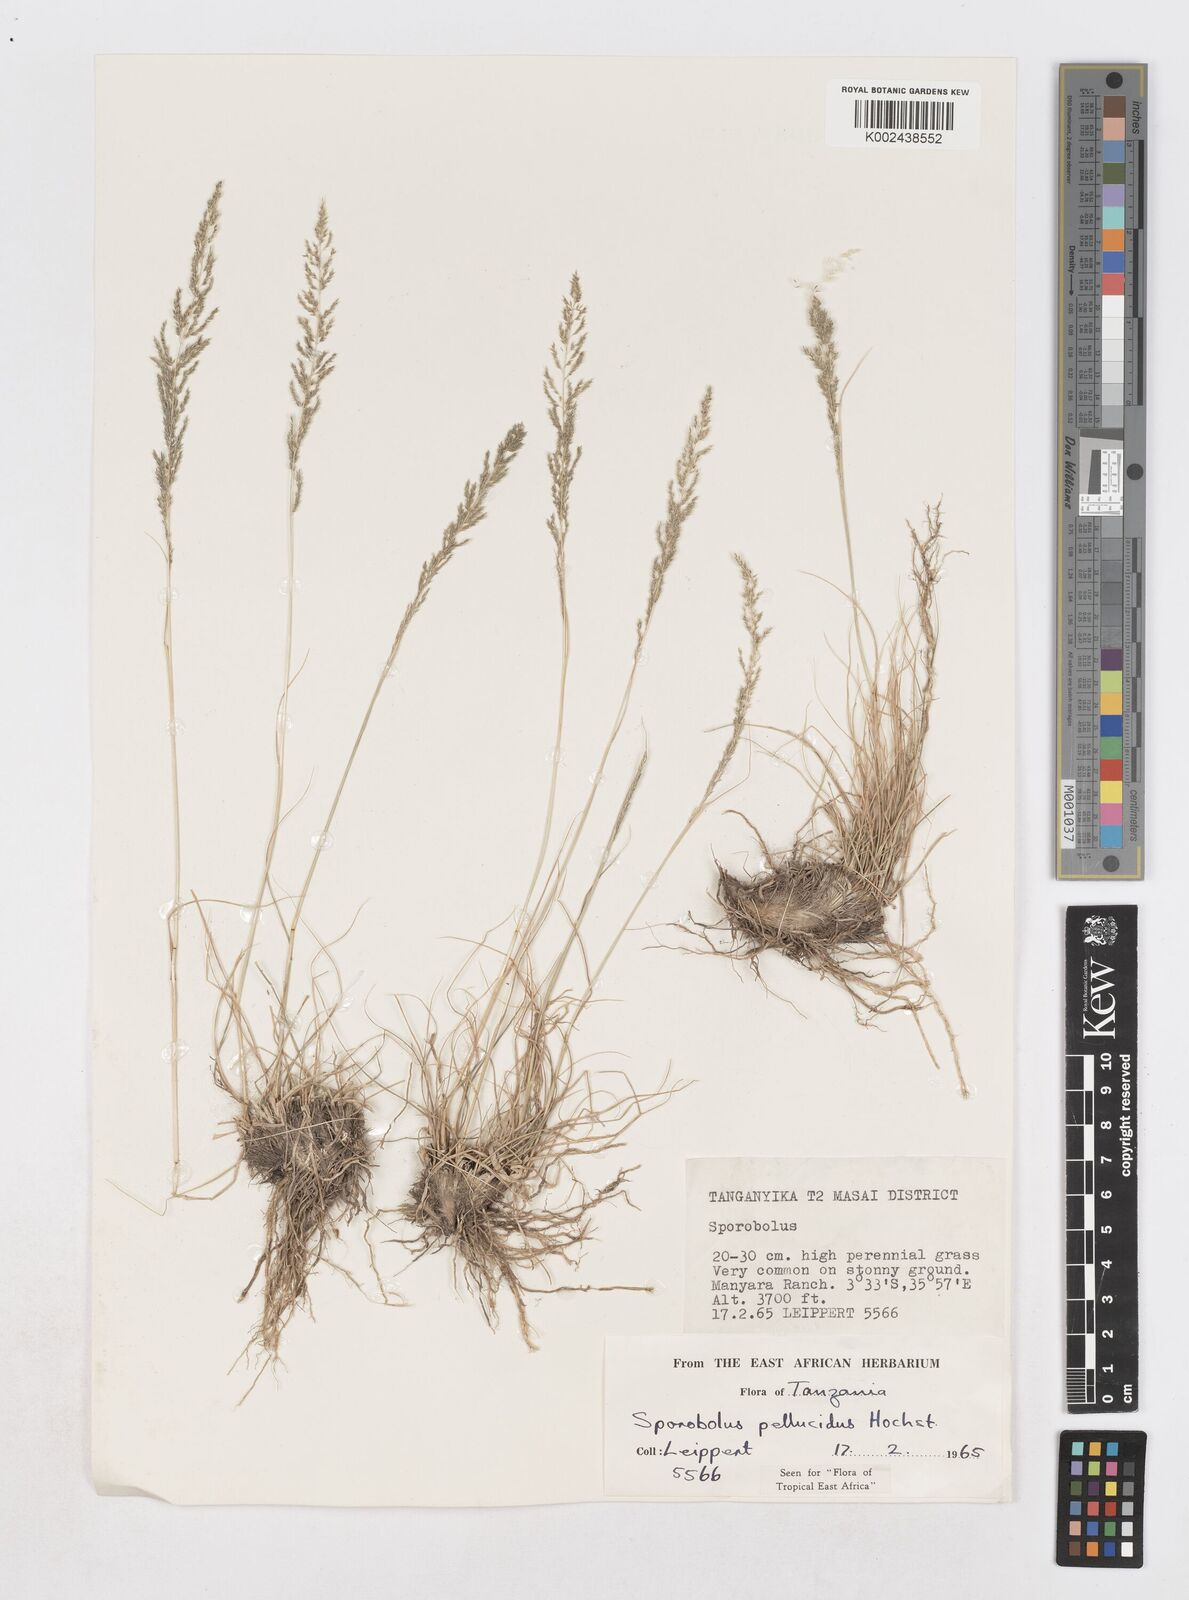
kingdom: Plantae
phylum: Tracheophyta
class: Liliopsida
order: Poales
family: Poaceae
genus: Sporobolus
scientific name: Sporobolus pellucidus
